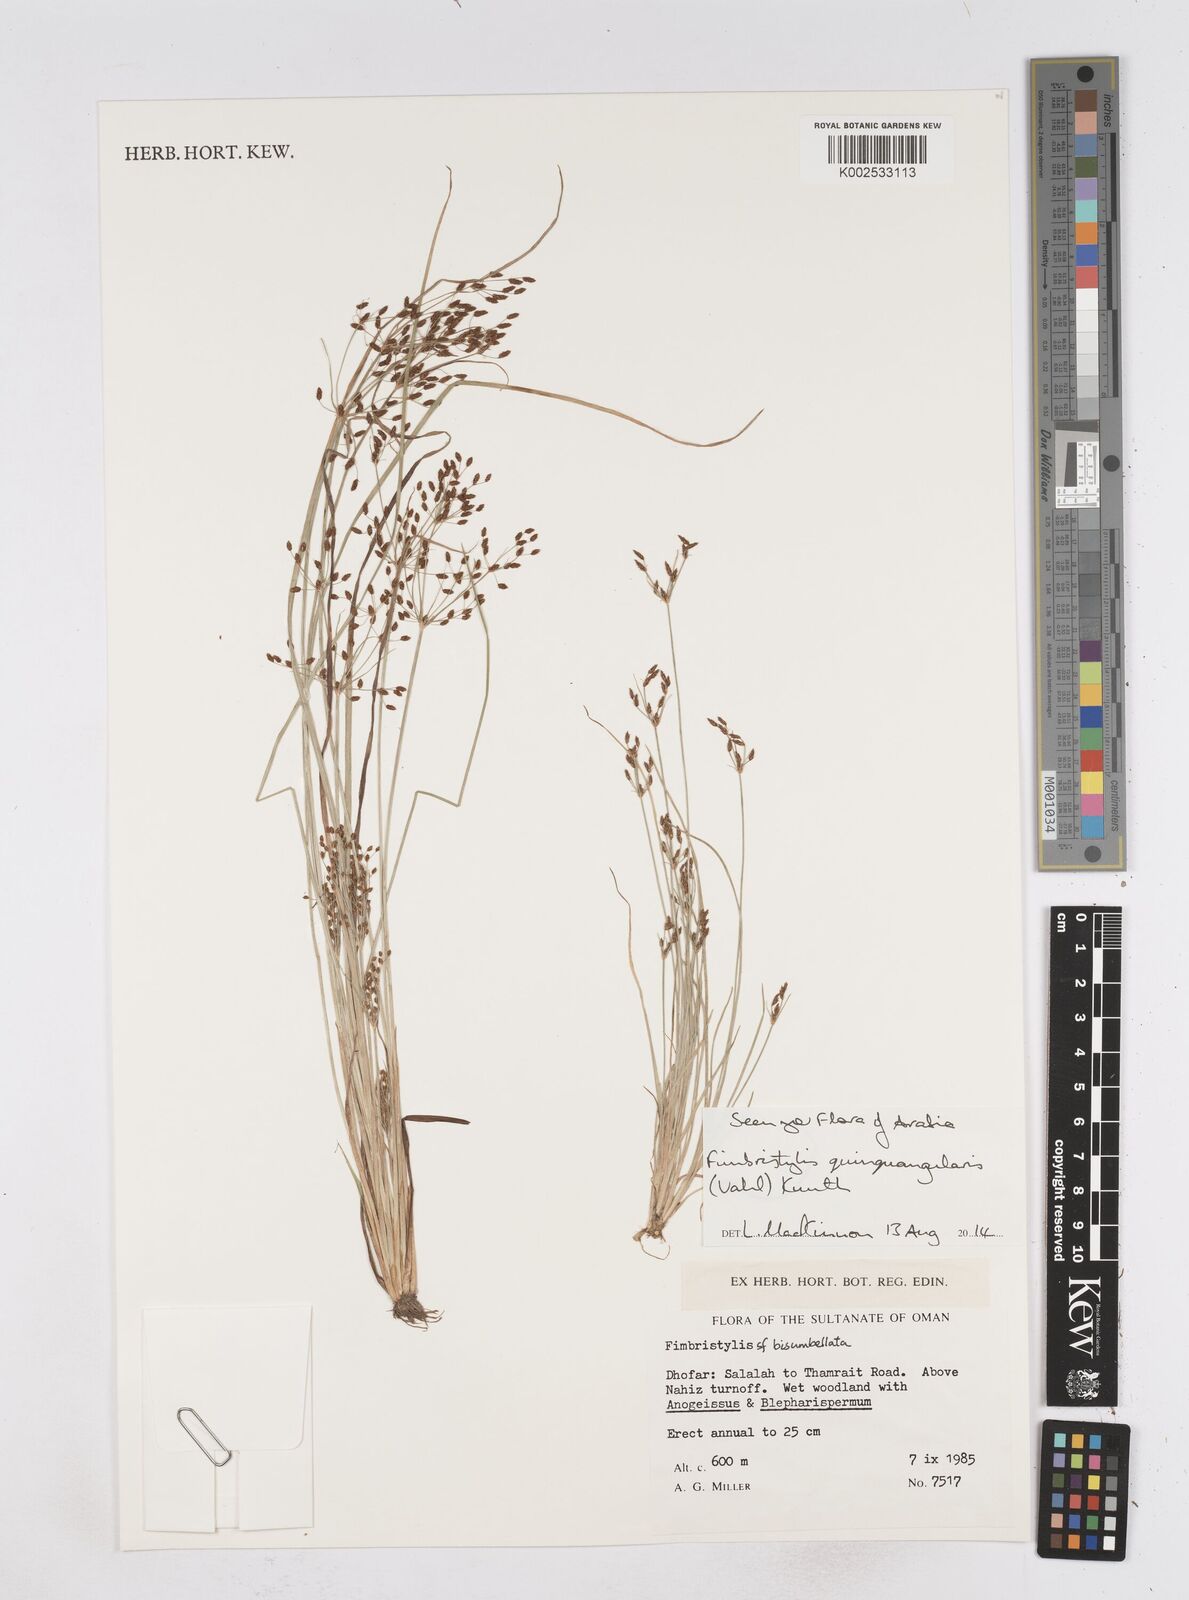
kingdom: Plantae
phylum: Tracheophyta
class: Liliopsida
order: Poales
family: Cyperaceae
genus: Fimbristylis
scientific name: Fimbristylis quinquangularis
